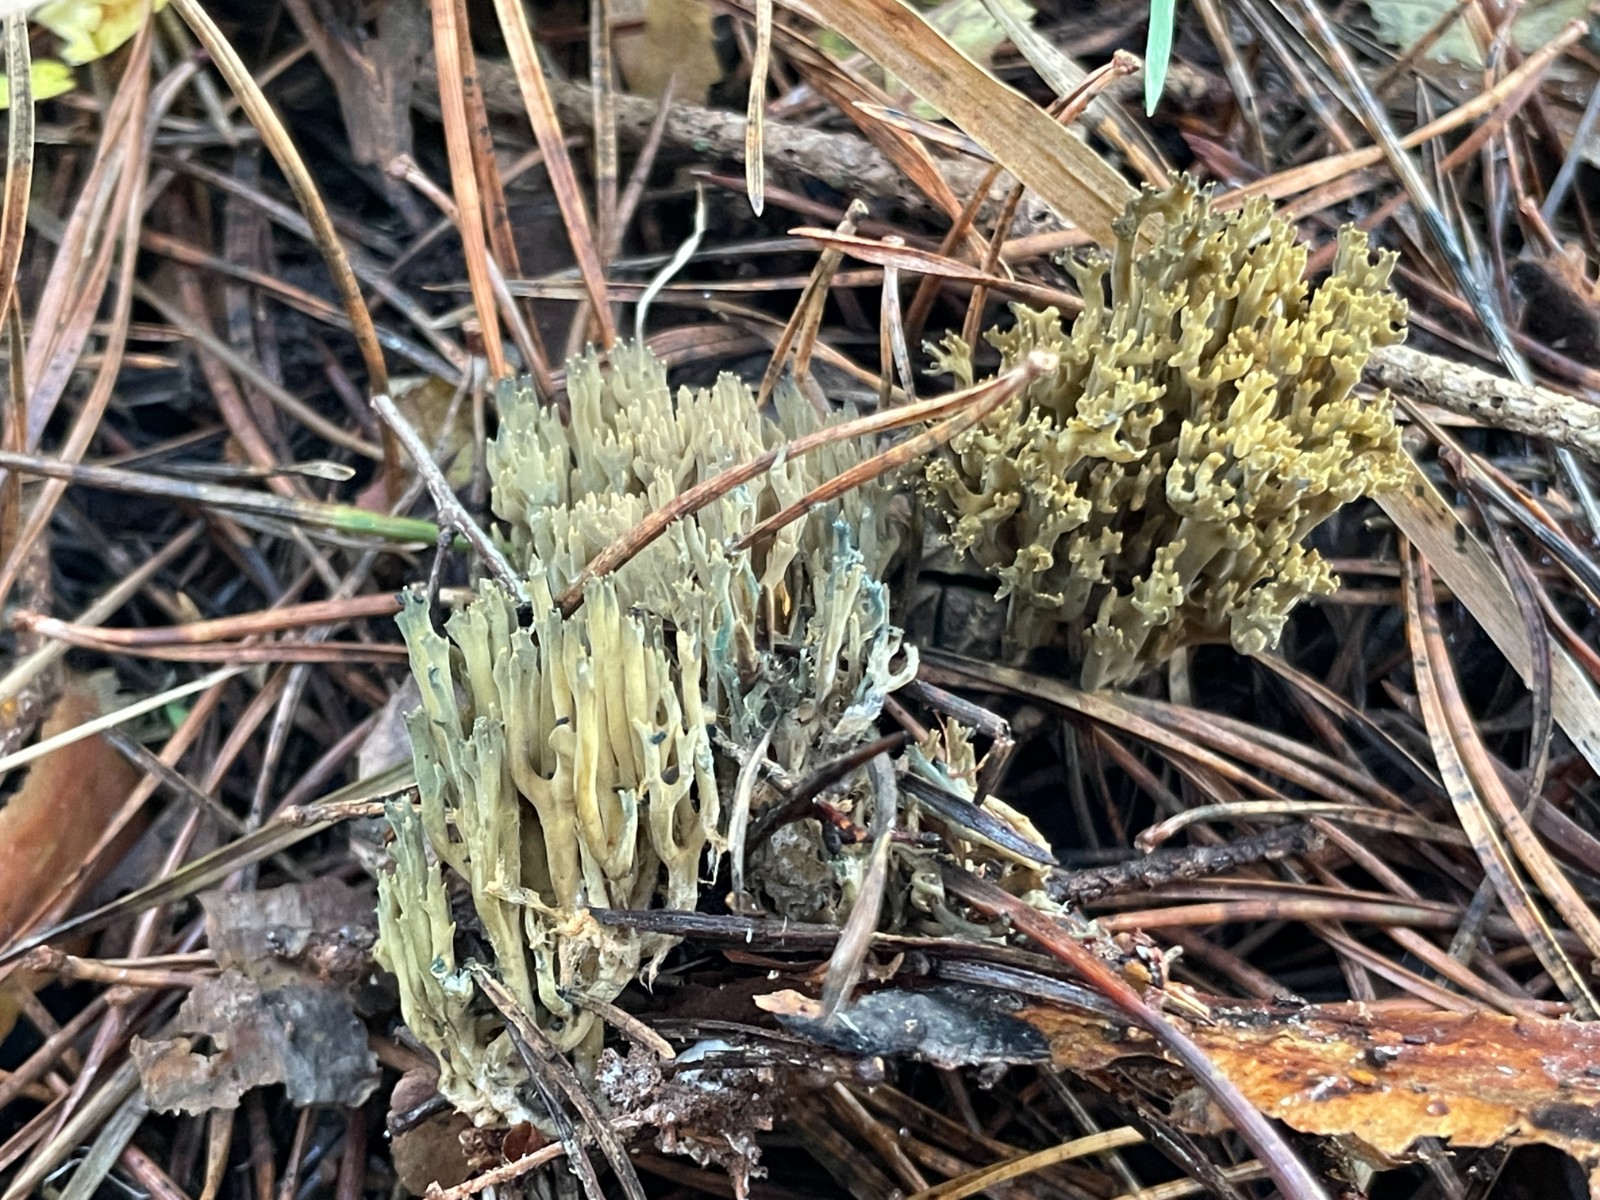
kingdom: Fungi
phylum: Basidiomycota
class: Agaricomycetes
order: Gomphales
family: Gomphaceae
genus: Phaeoclavulina
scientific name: Phaeoclavulina abietina
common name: gulgrøn koralsvamp
